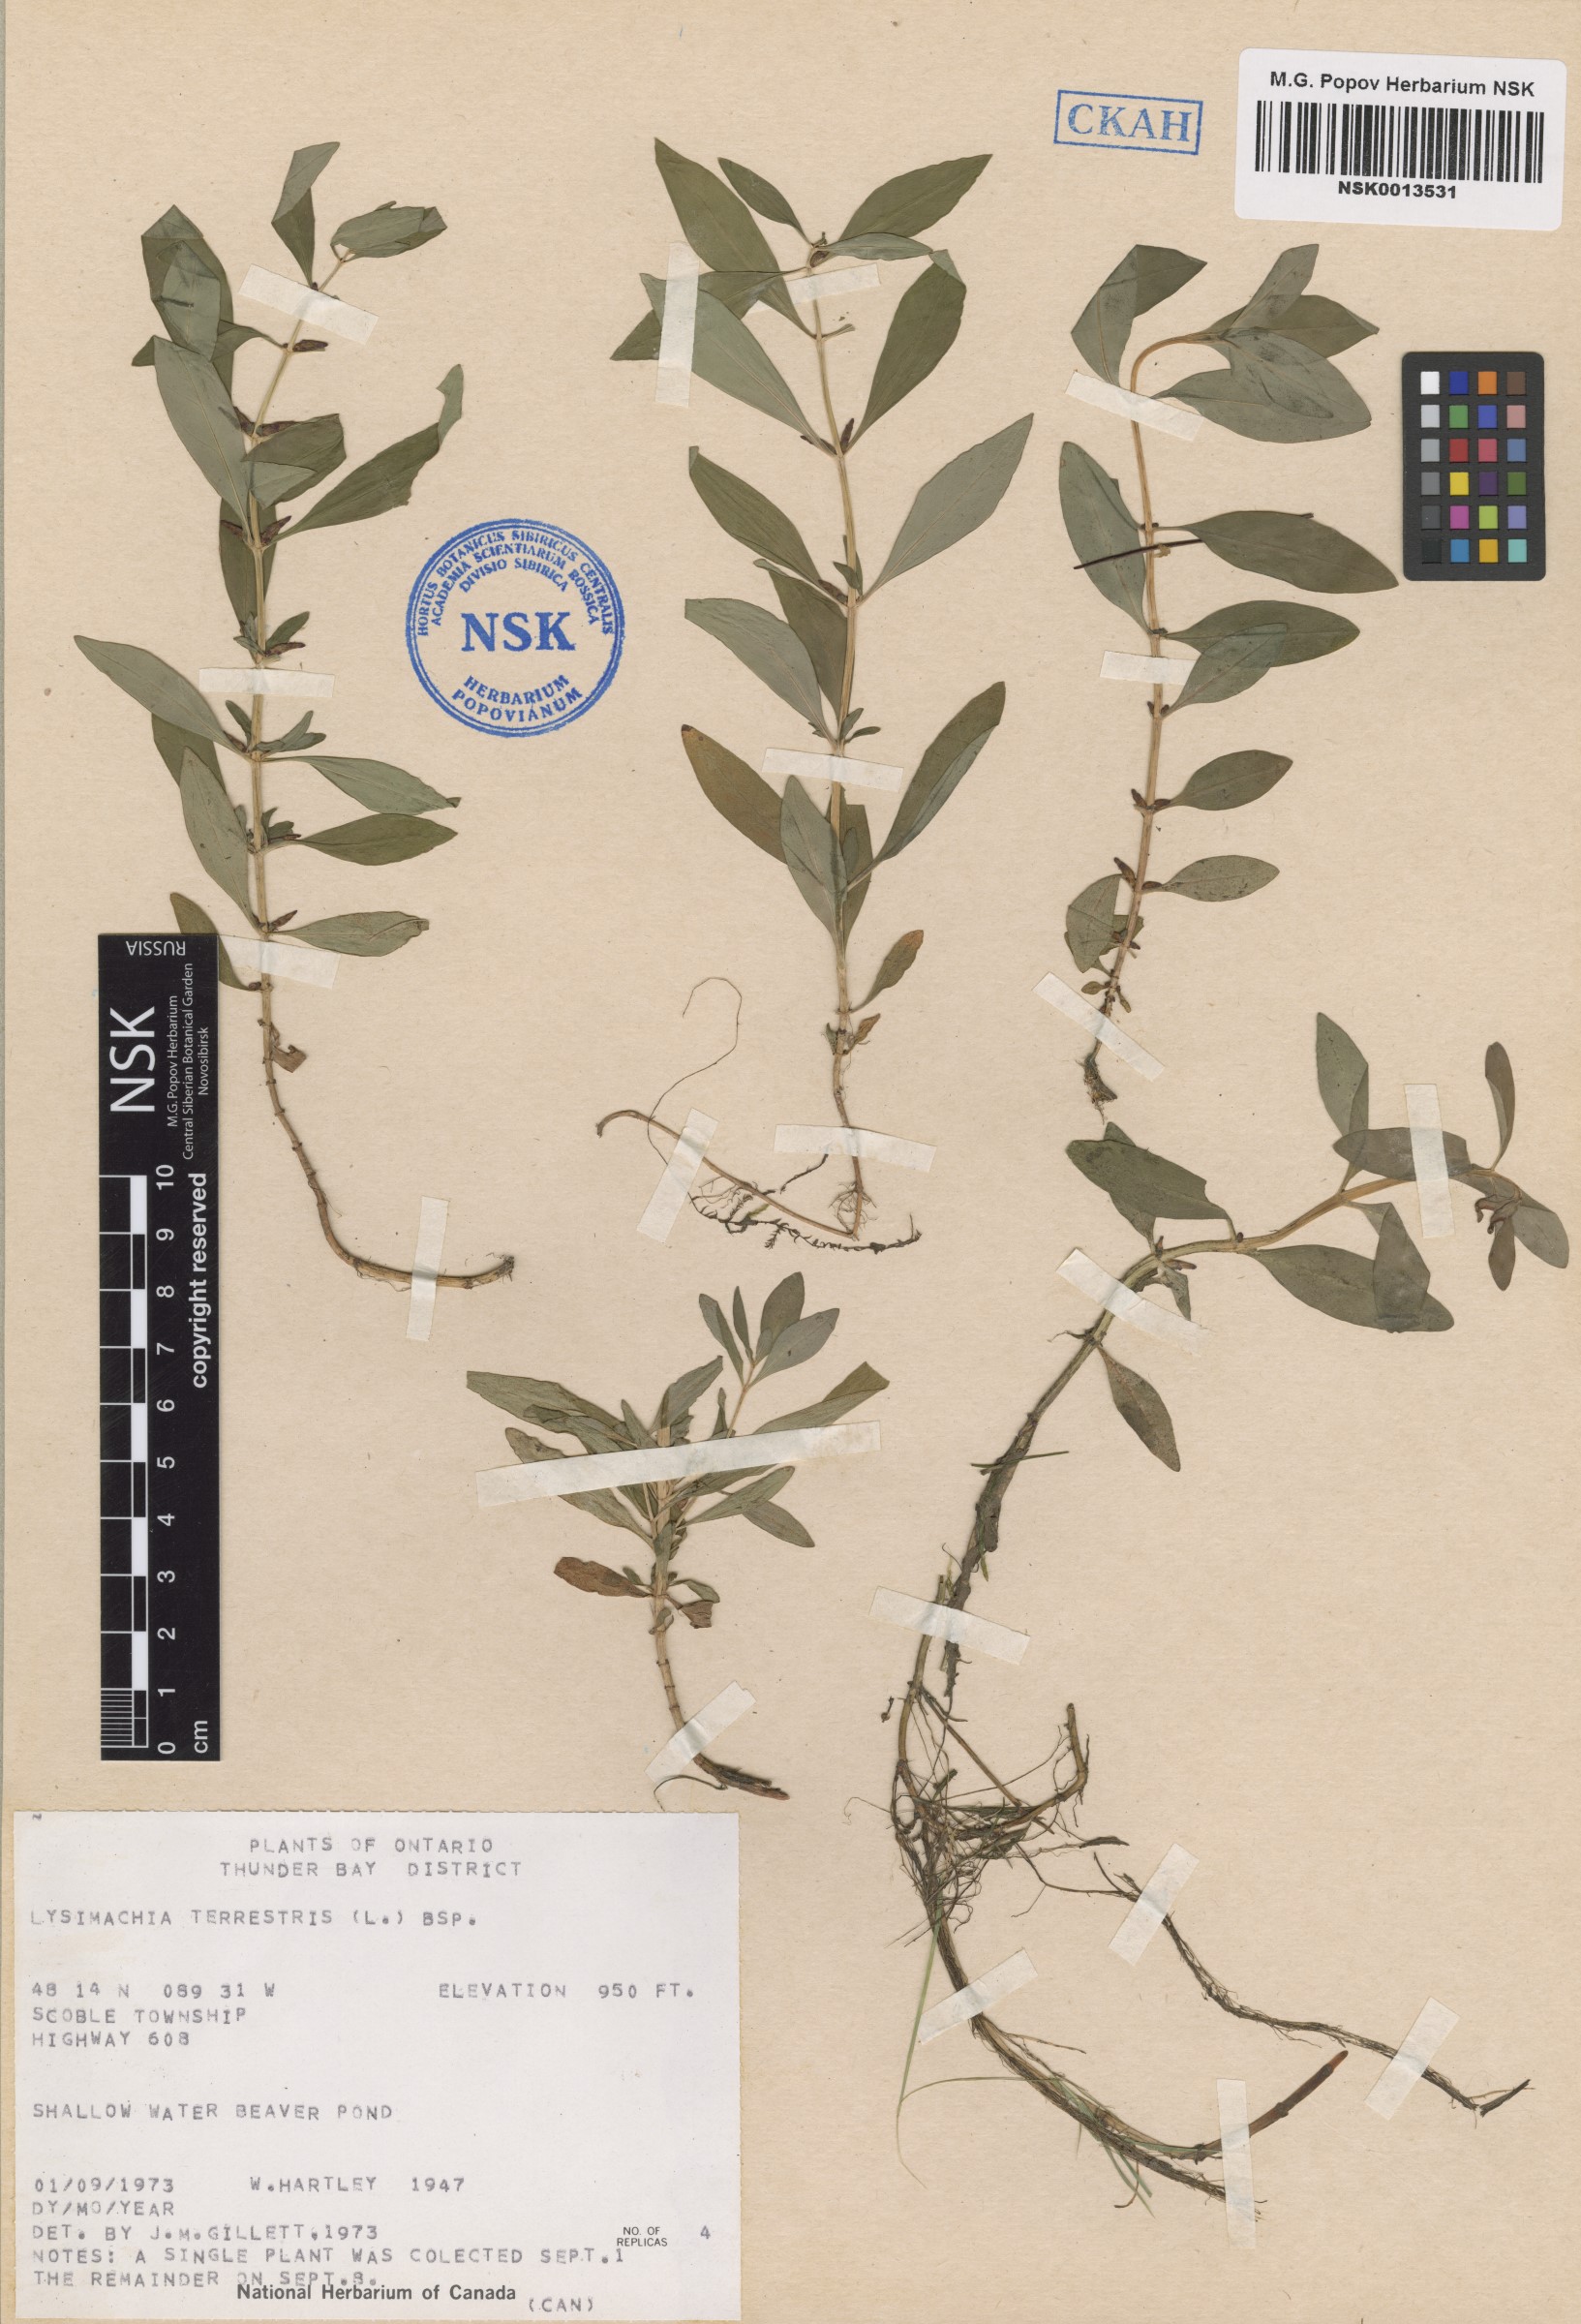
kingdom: Plantae
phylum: Tracheophyta
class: Magnoliopsida
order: Ericales
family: Primulaceae
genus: Lysimachia
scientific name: Lysimachia terrestris
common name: Lake loosestrife
